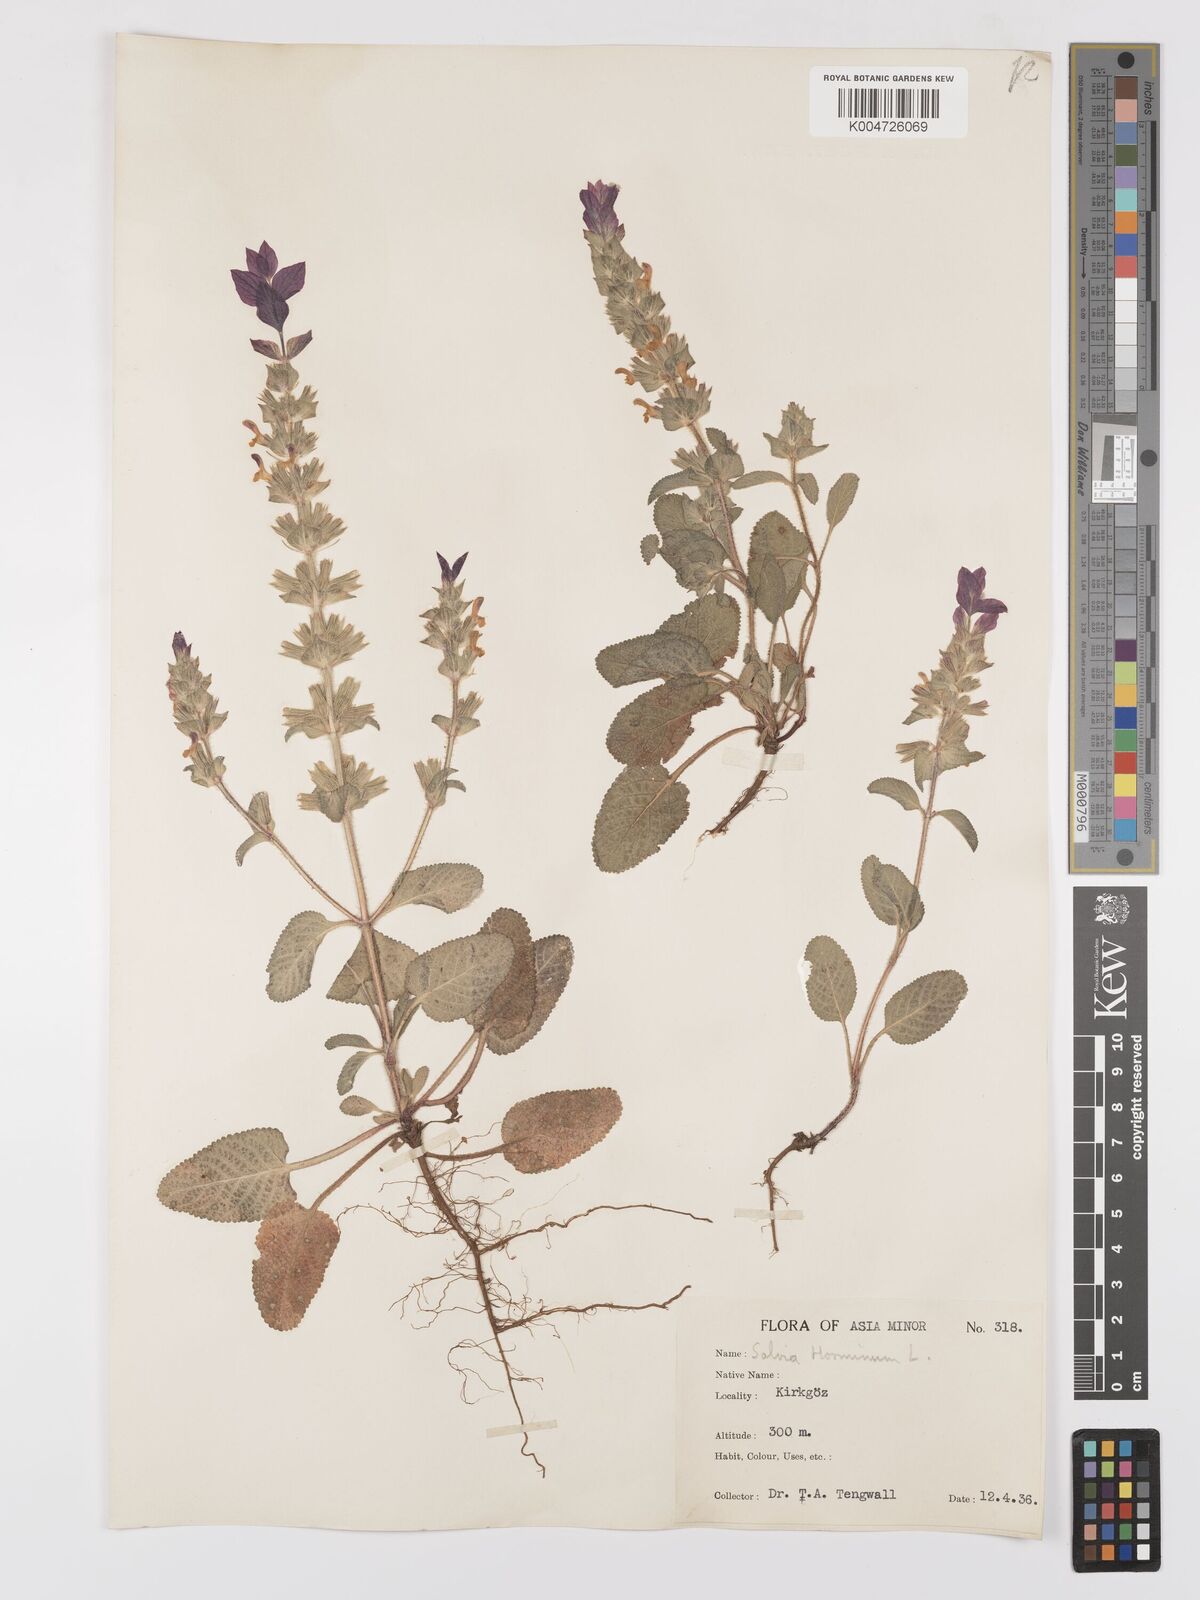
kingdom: Plantae
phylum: Tracheophyta
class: Magnoliopsida
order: Lamiales
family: Lamiaceae
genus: Salvia
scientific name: Salvia viridis
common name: Annual clary
